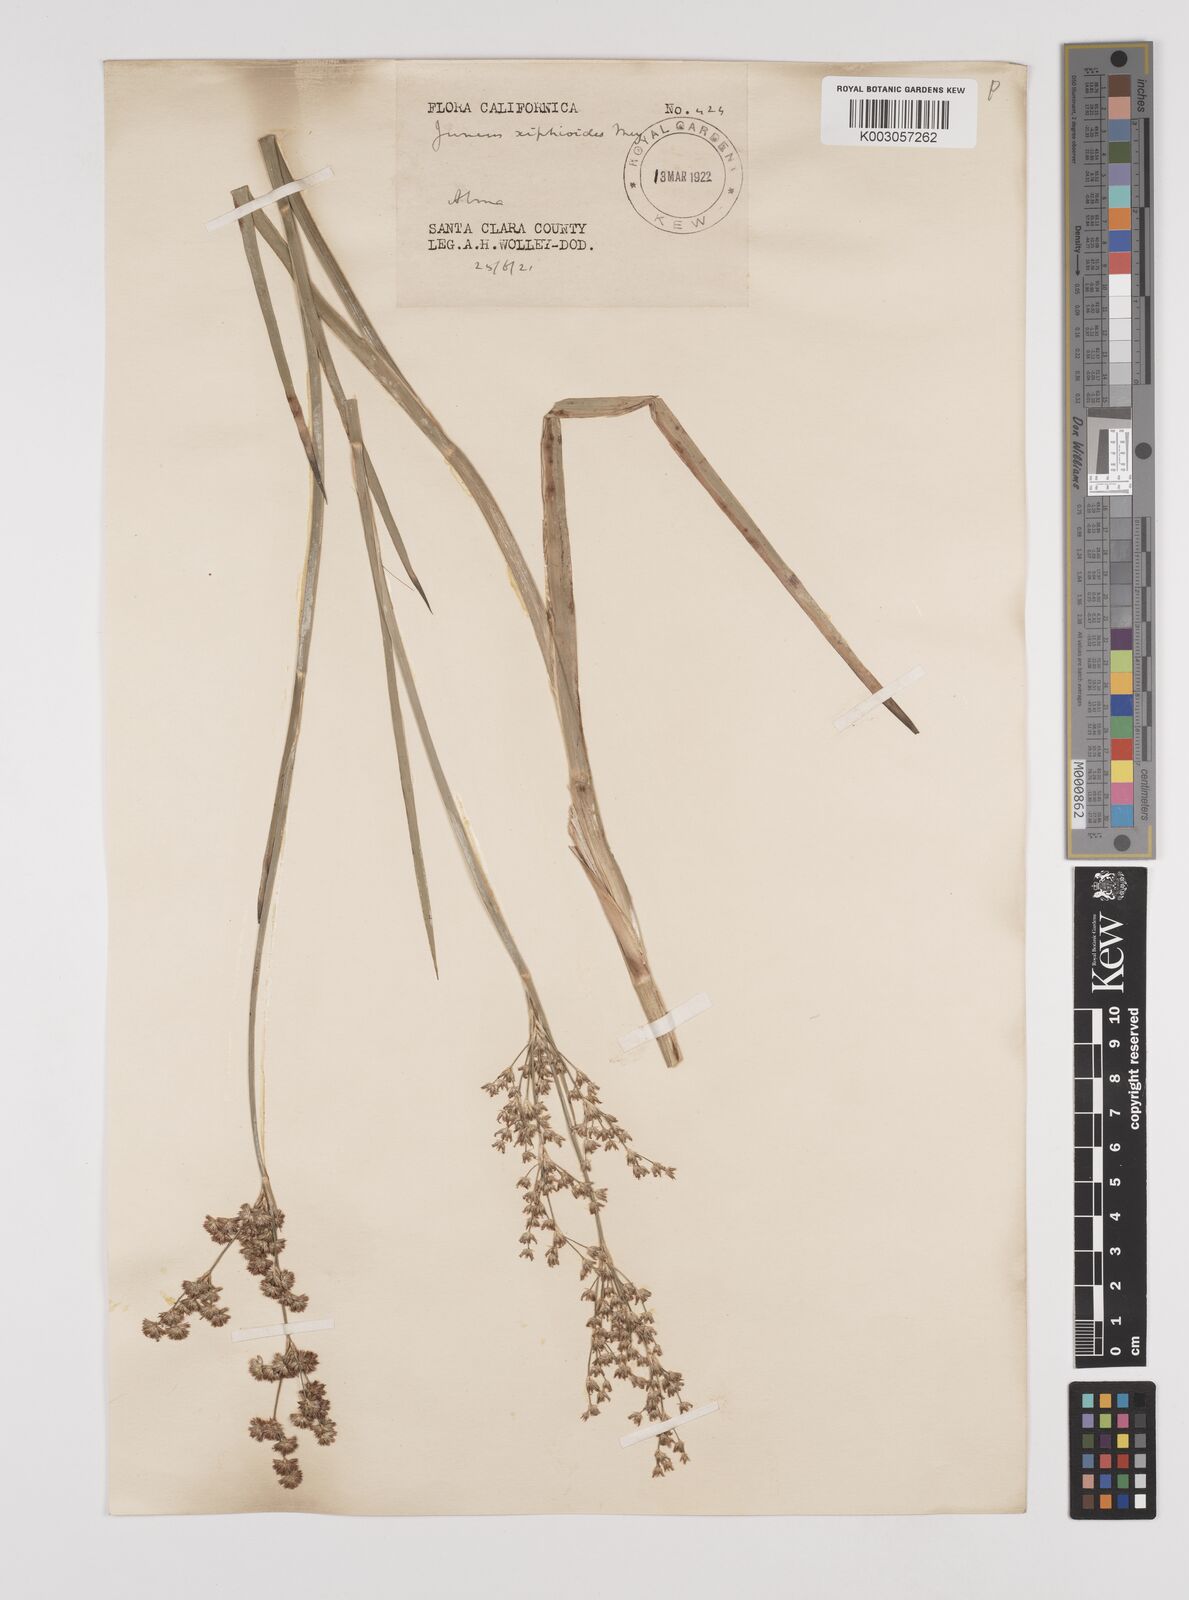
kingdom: Plantae
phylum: Tracheophyta
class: Liliopsida
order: Poales
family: Juncaceae
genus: Juncus
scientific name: Juncus xiphioides
